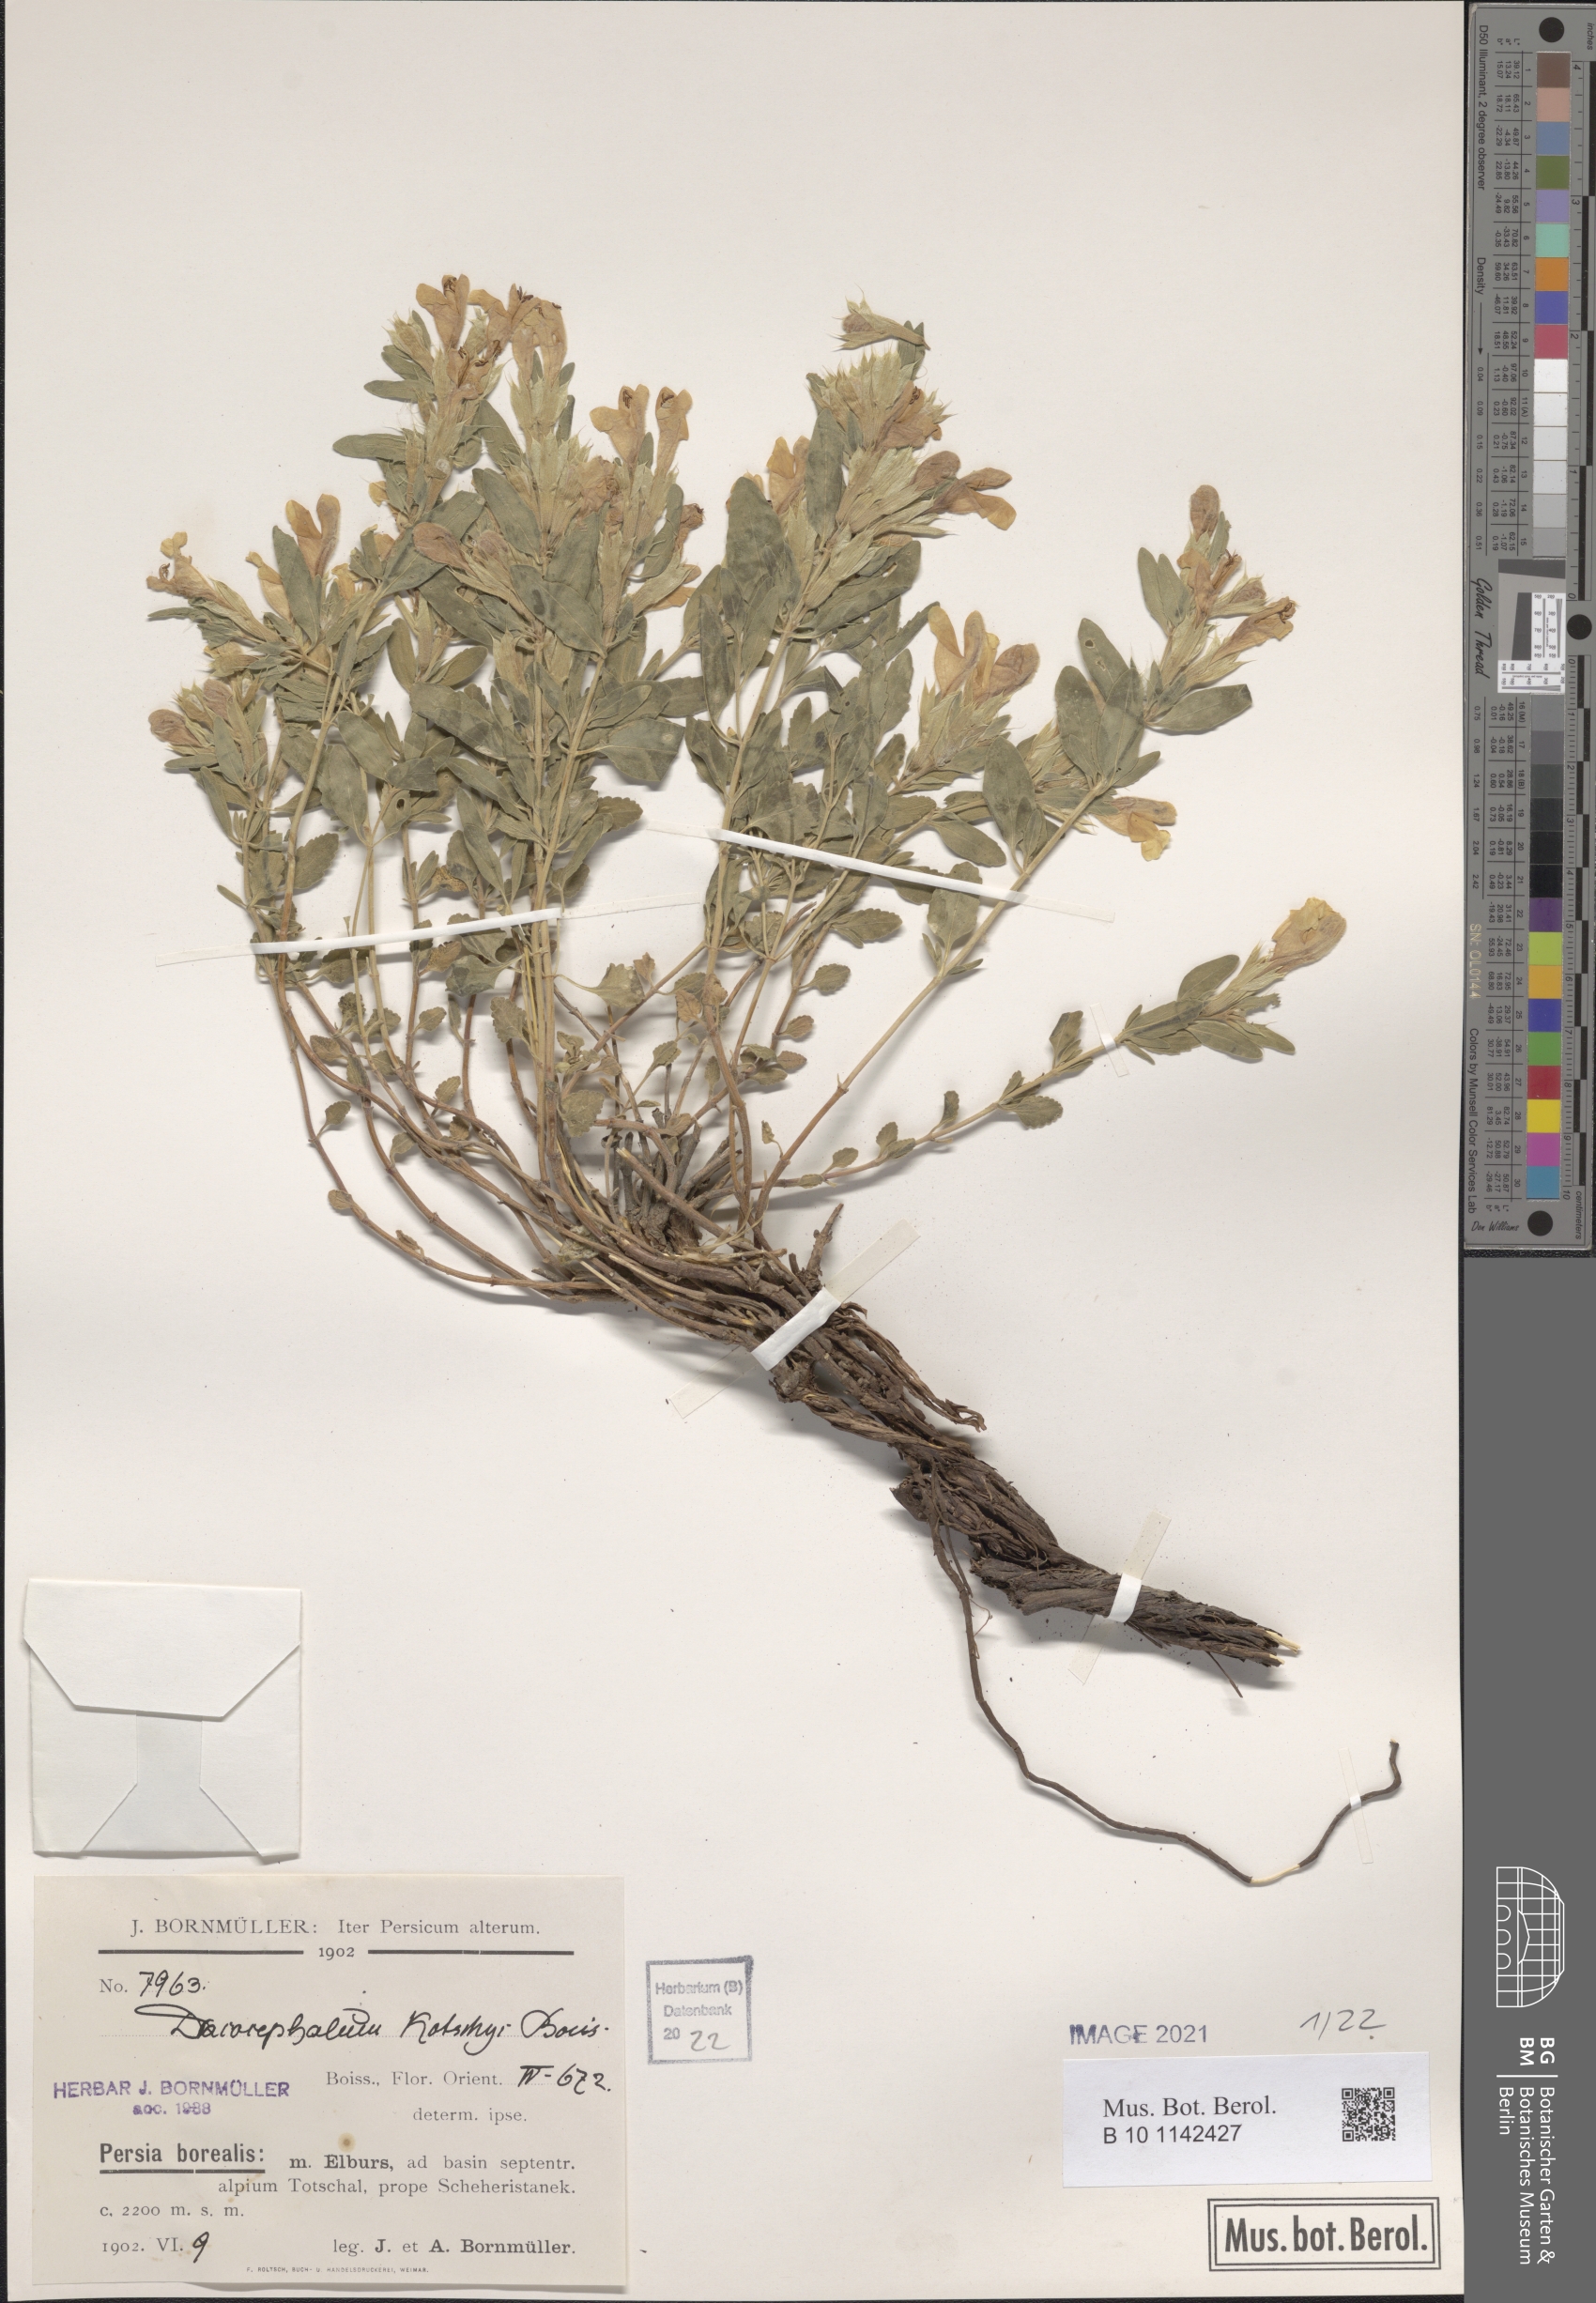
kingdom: Plantae
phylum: Tracheophyta
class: Magnoliopsida
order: Lamiales
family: Lamiaceae
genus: Dracocephalum
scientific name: Dracocephalum kotschyi
